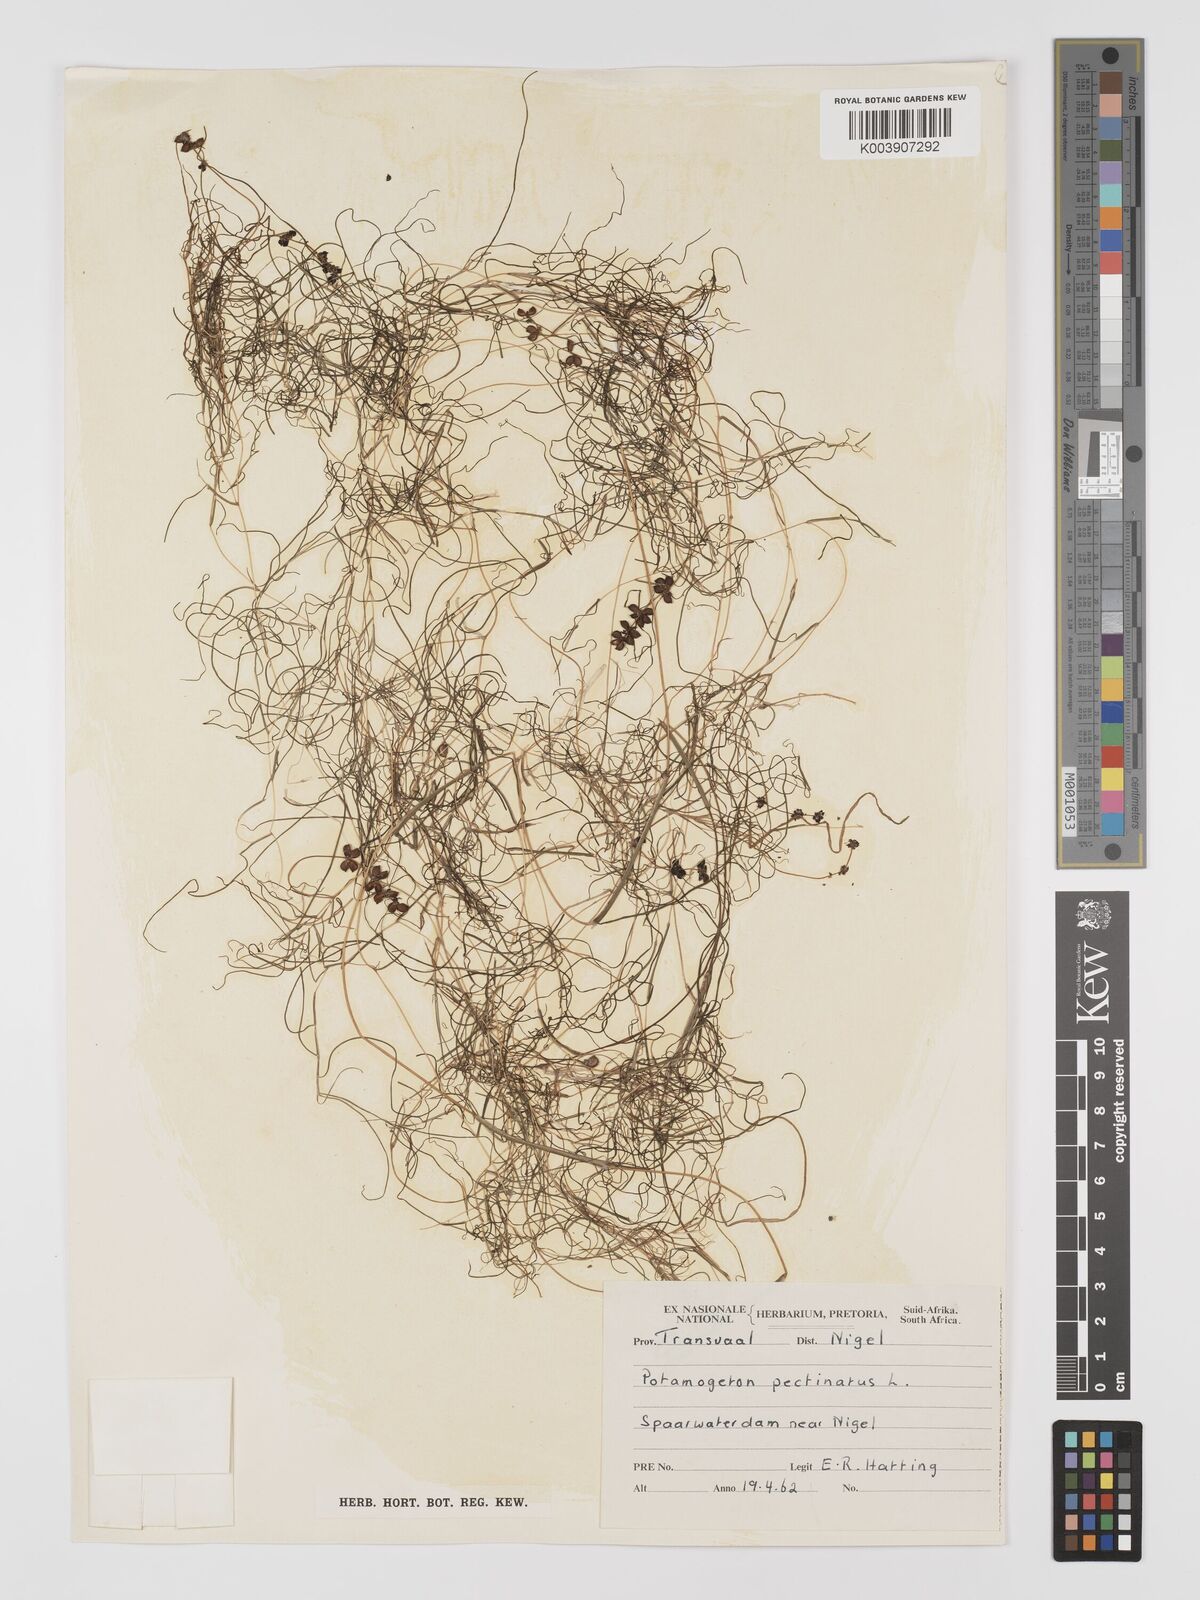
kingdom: Plantae
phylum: Tracheophyta
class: Liliopsida
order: Alismatales
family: Potamogetonaceae
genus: Stuckenia
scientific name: Stuckenia pectinata
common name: Sago pondweed
